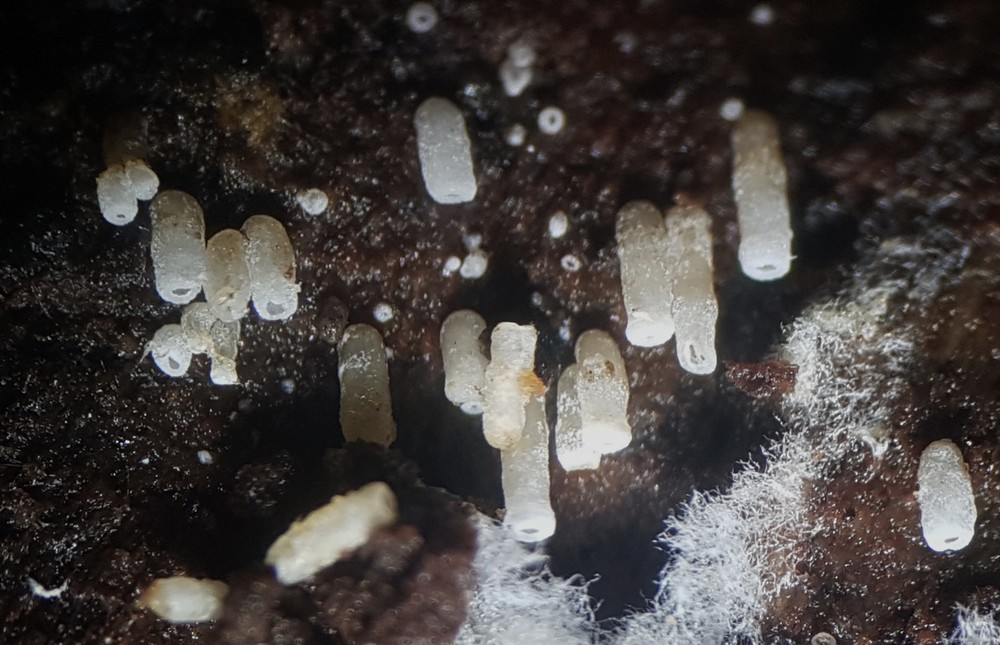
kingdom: Fungi
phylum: Basidiomycota
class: Agaricomycetes
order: Agaricales
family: Marasmiaceae
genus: Henningsomyces
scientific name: Henningsomyces candidus
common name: glat hængerør
